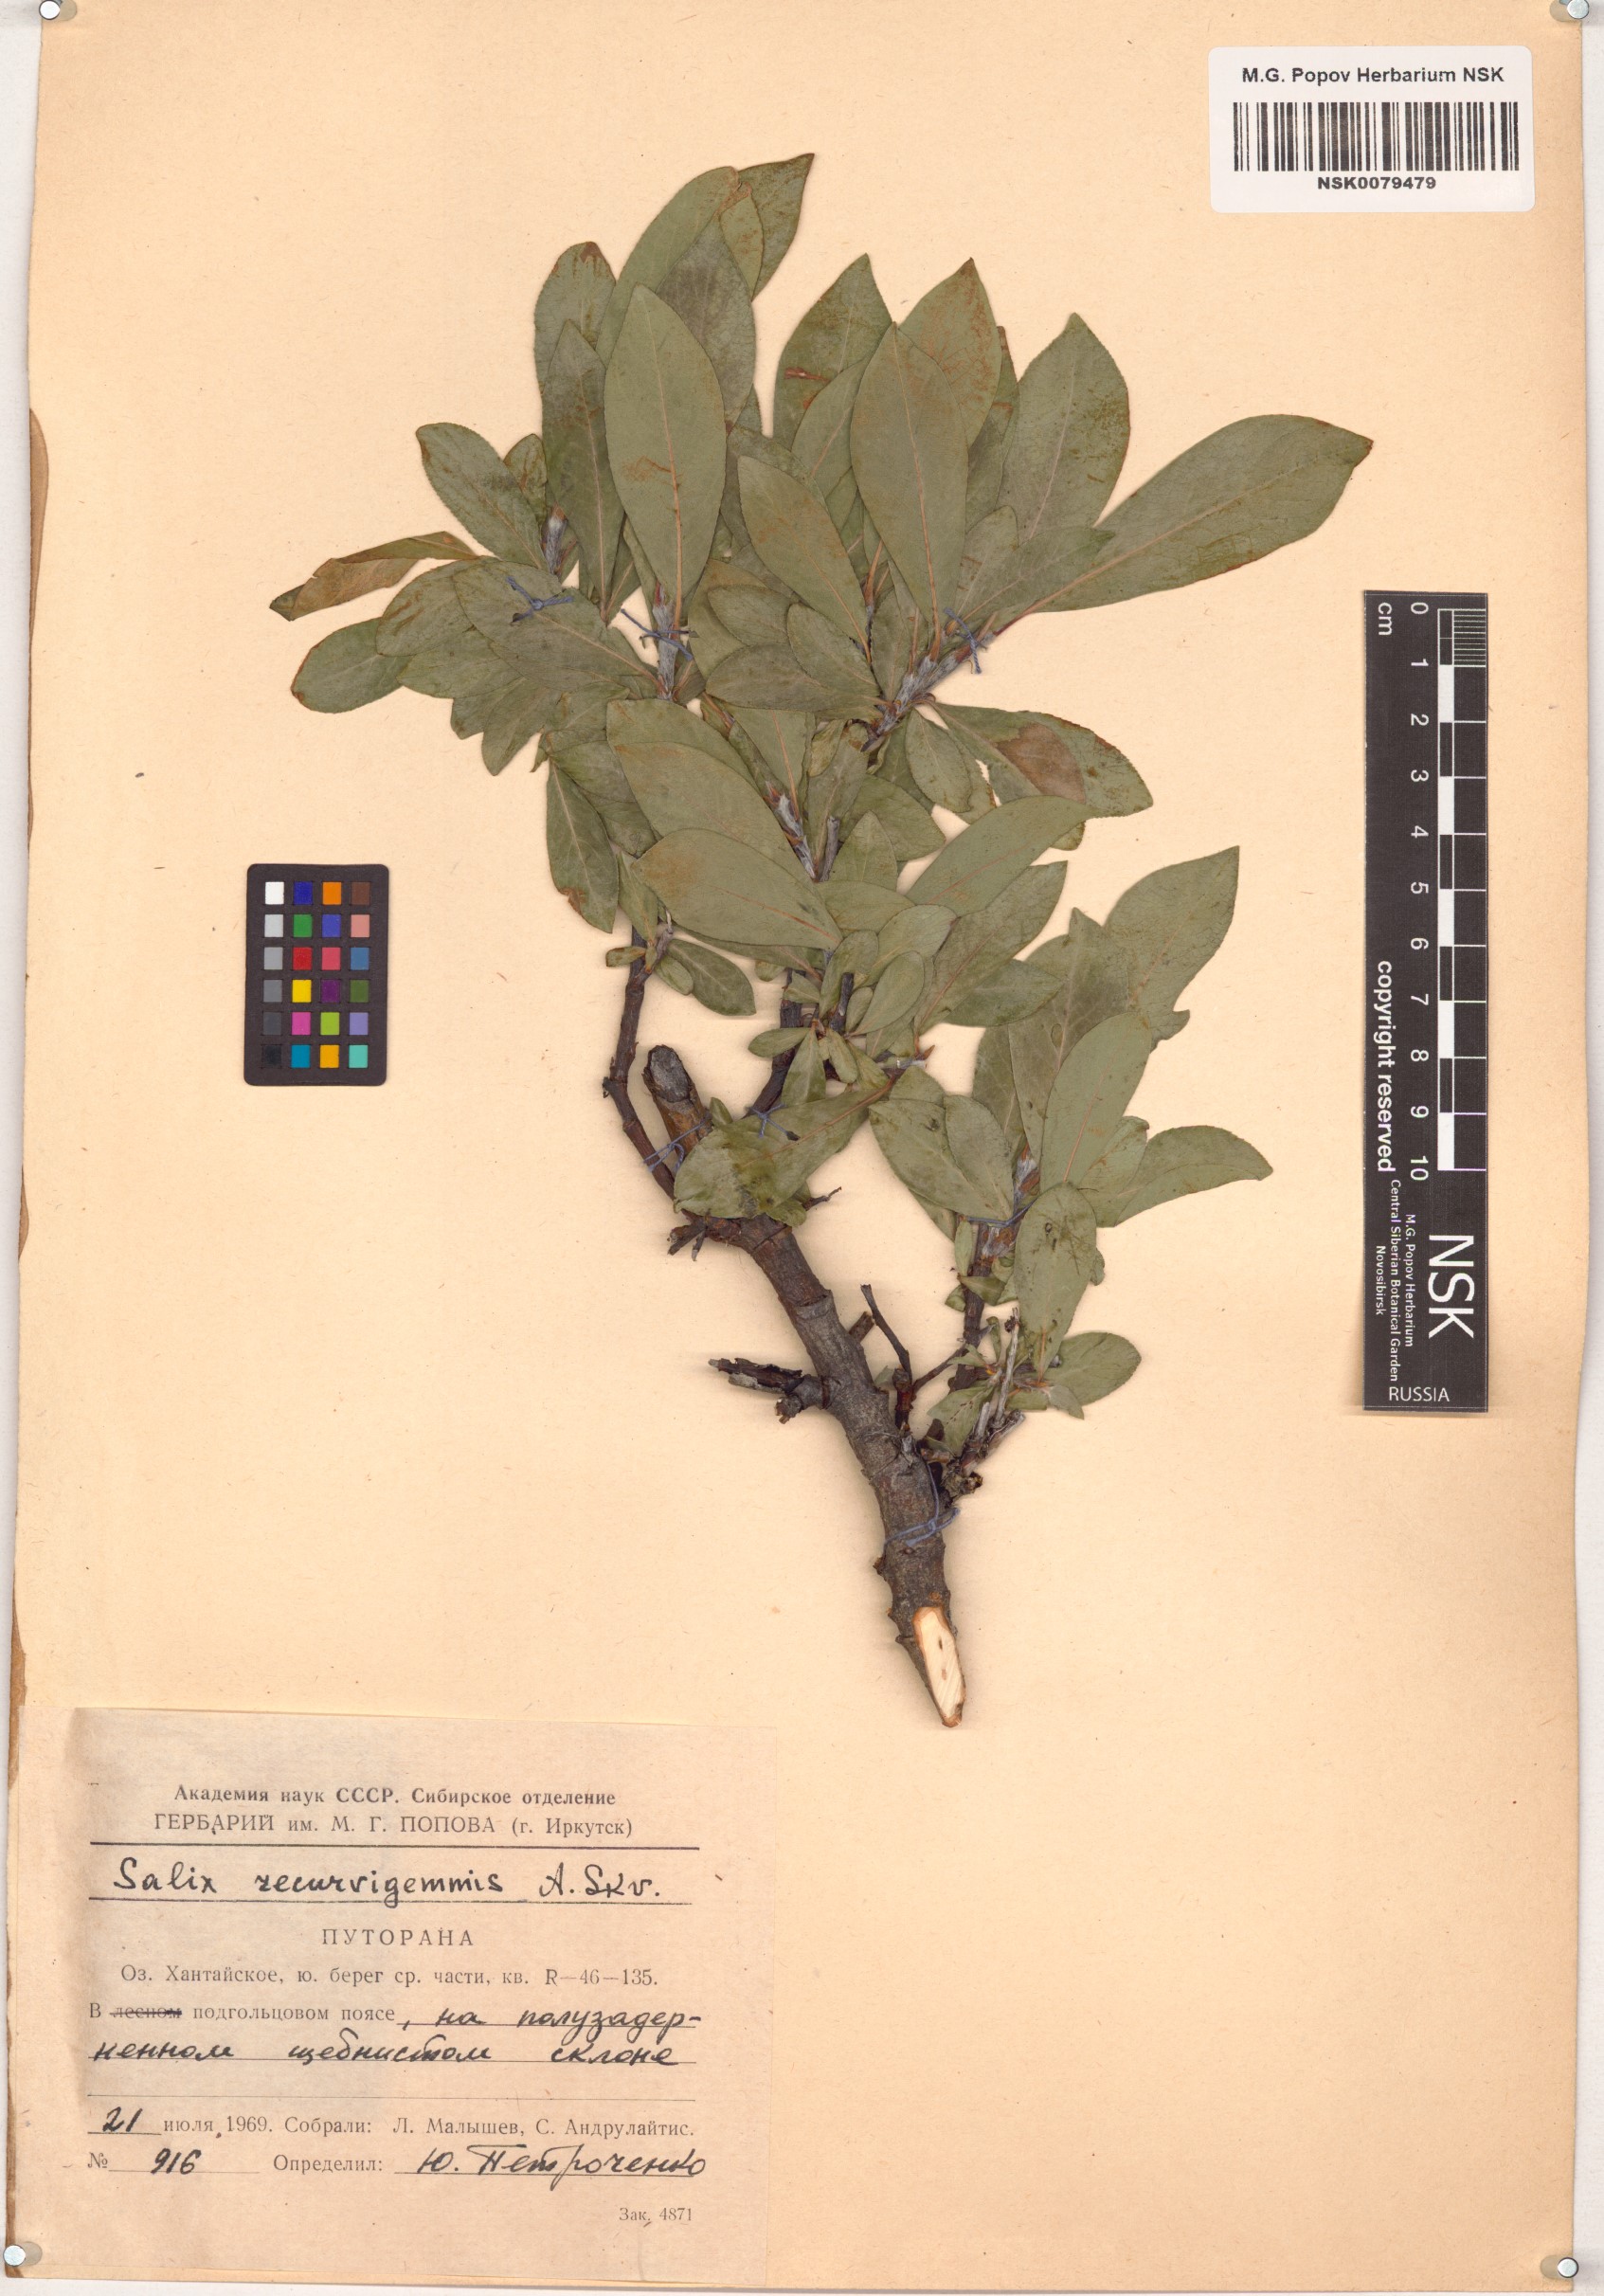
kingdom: Plantae
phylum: Tracheophyta
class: Magnoliopsida
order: Malpighiales
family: Salicaceae
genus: Salix
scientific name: Salix recurvigemmata
